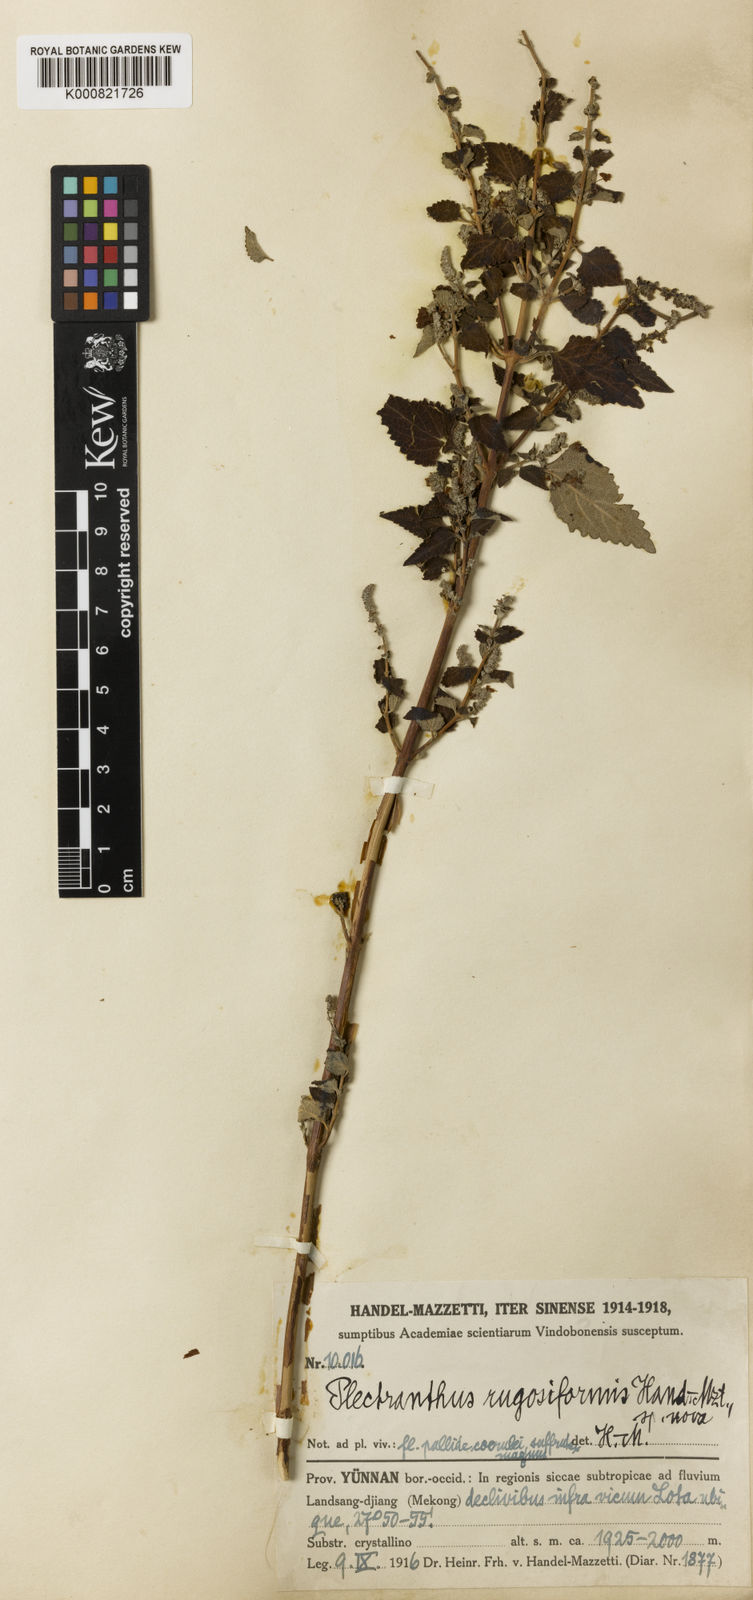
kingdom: Plantae
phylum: Tracheophyta
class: Magnoliopsida
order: Lamiales
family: Lamiaceae
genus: Isodon
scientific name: Isodon rugosiformis
